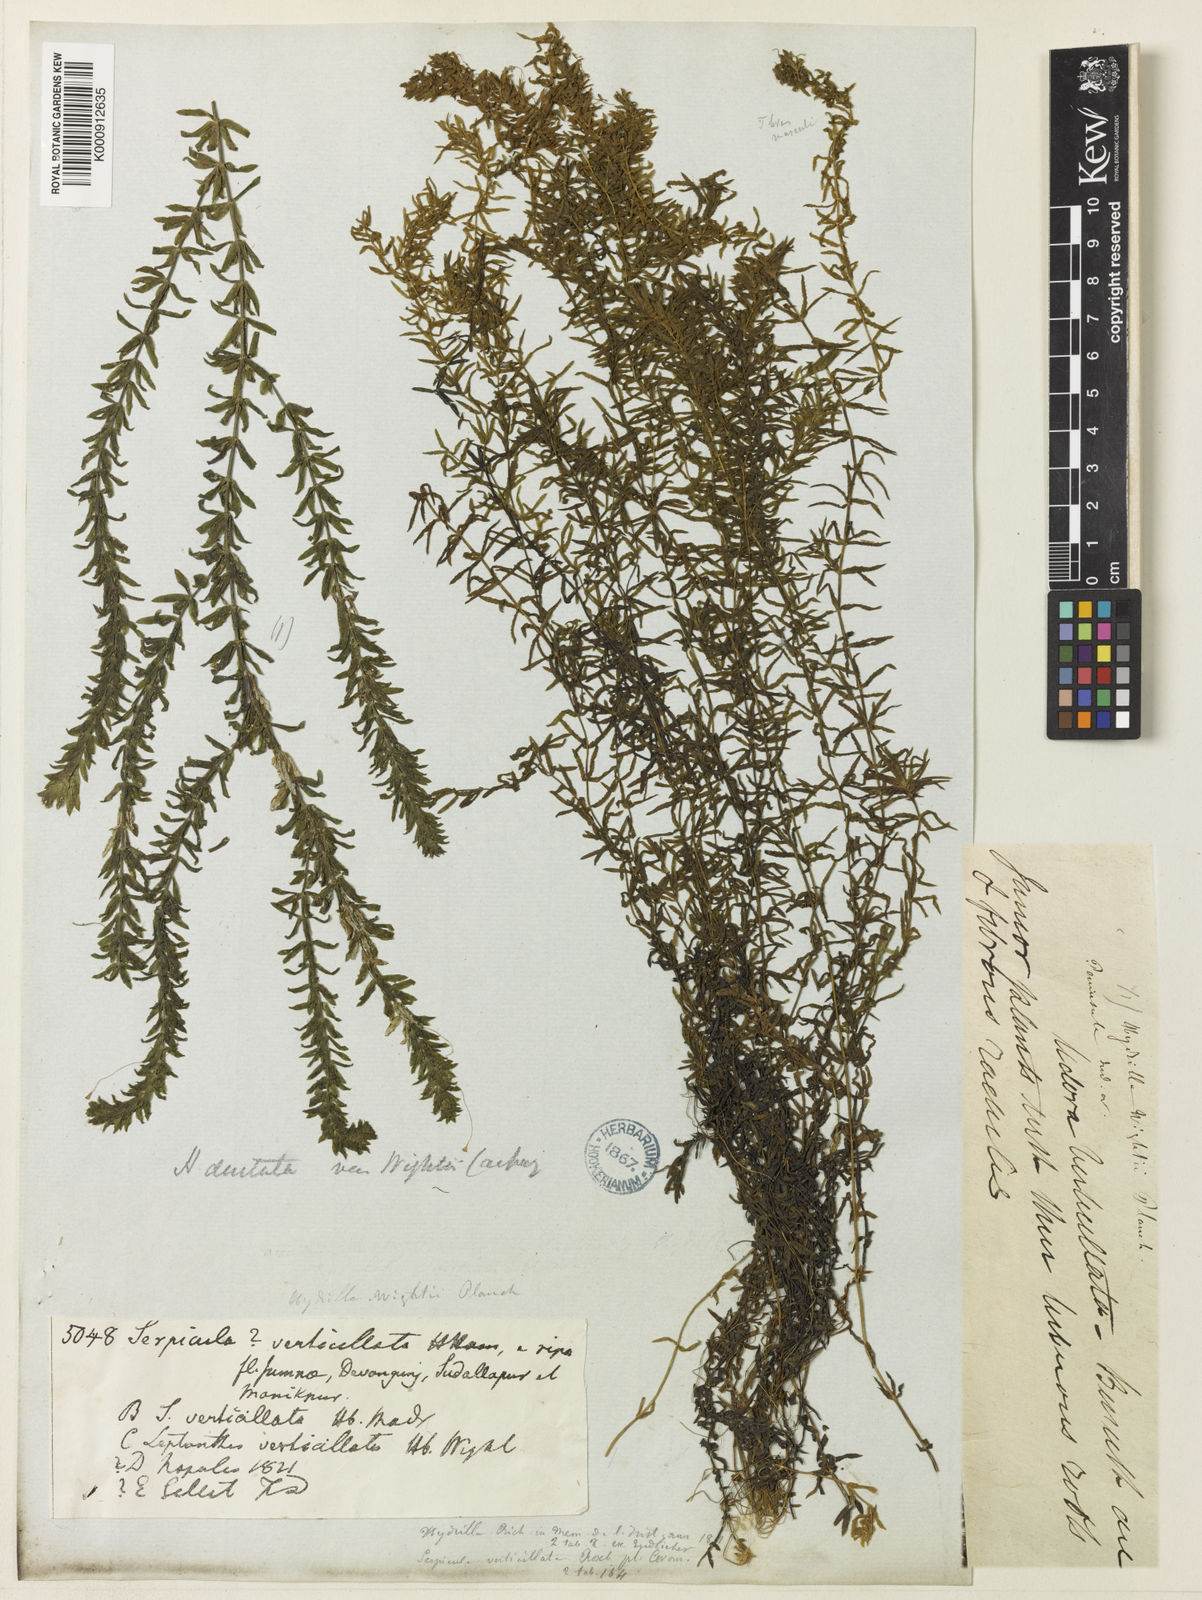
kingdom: Plantae
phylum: Tracheophyta
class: Liliopsida
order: Alismatales
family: Hydrocharitaceae
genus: Hydrilla
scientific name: Hydrilla verticillata
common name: Florida-elodea
